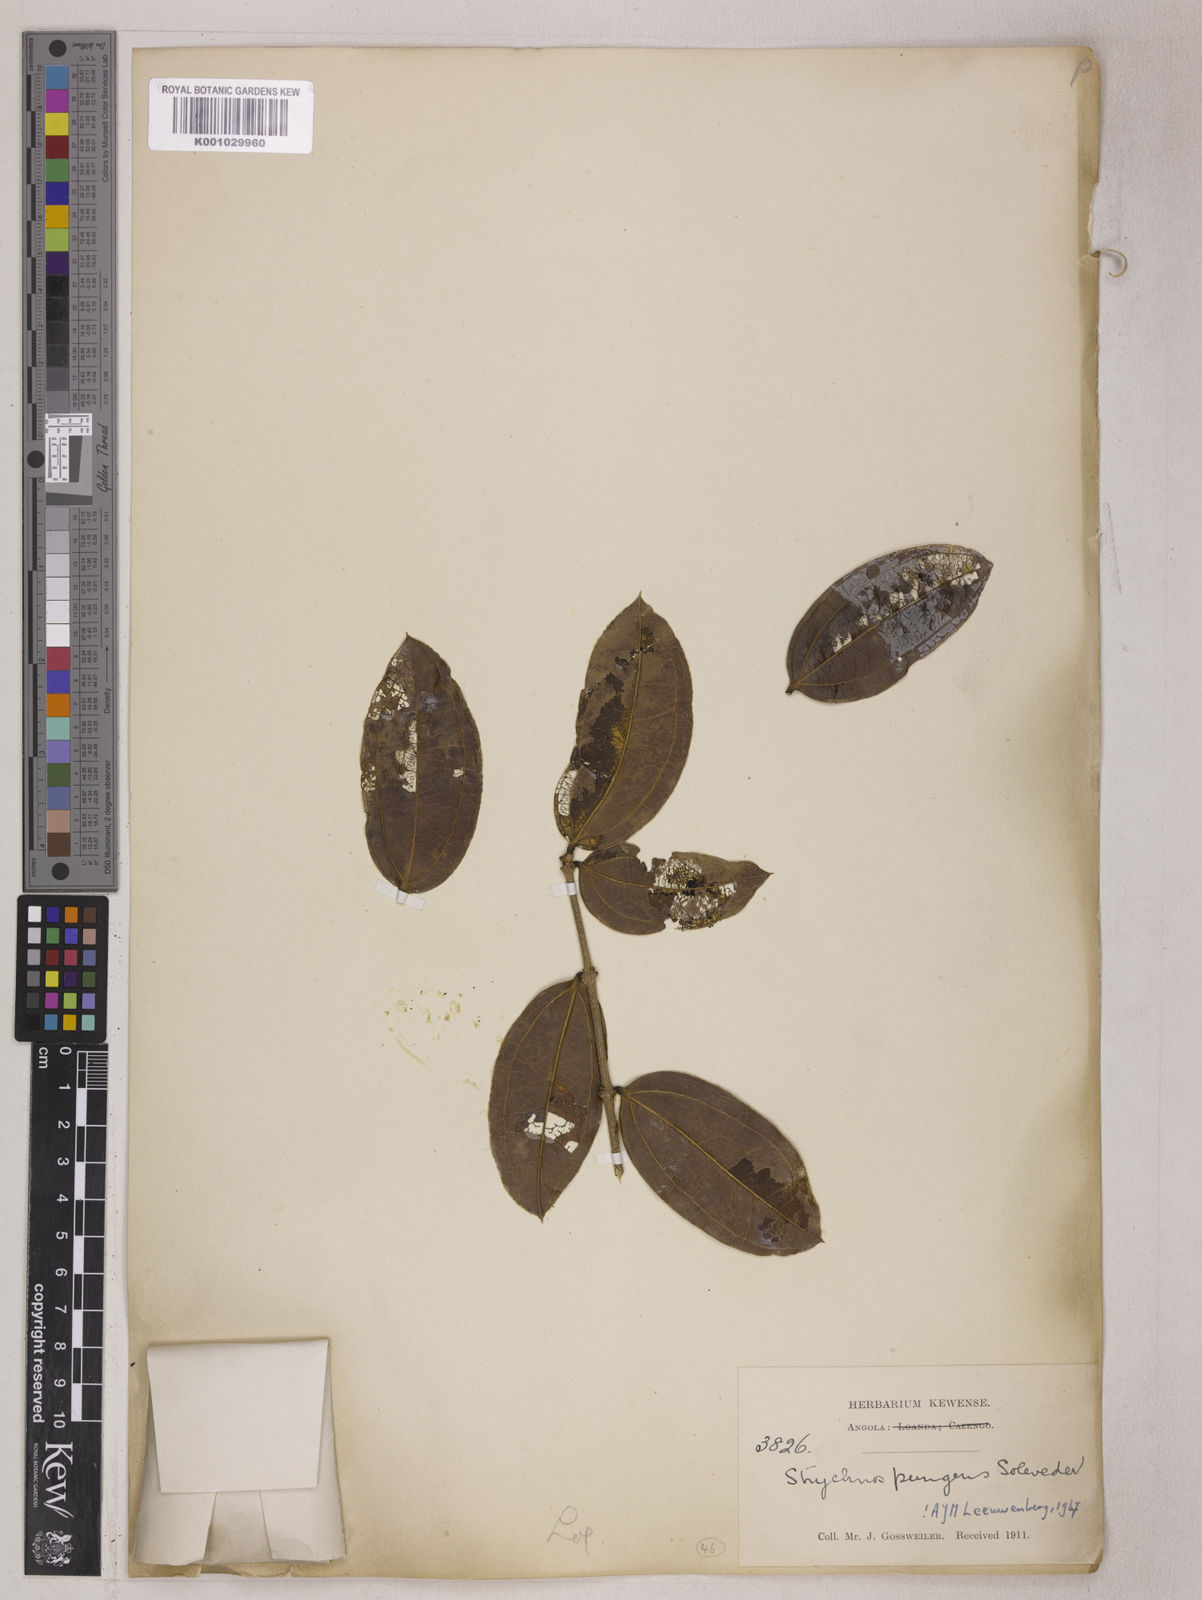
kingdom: Plantae
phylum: Tracheophyta
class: Magnoliopsida
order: Gentianales
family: Loganiaceae
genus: Strychnos
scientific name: Strychnos pungens
